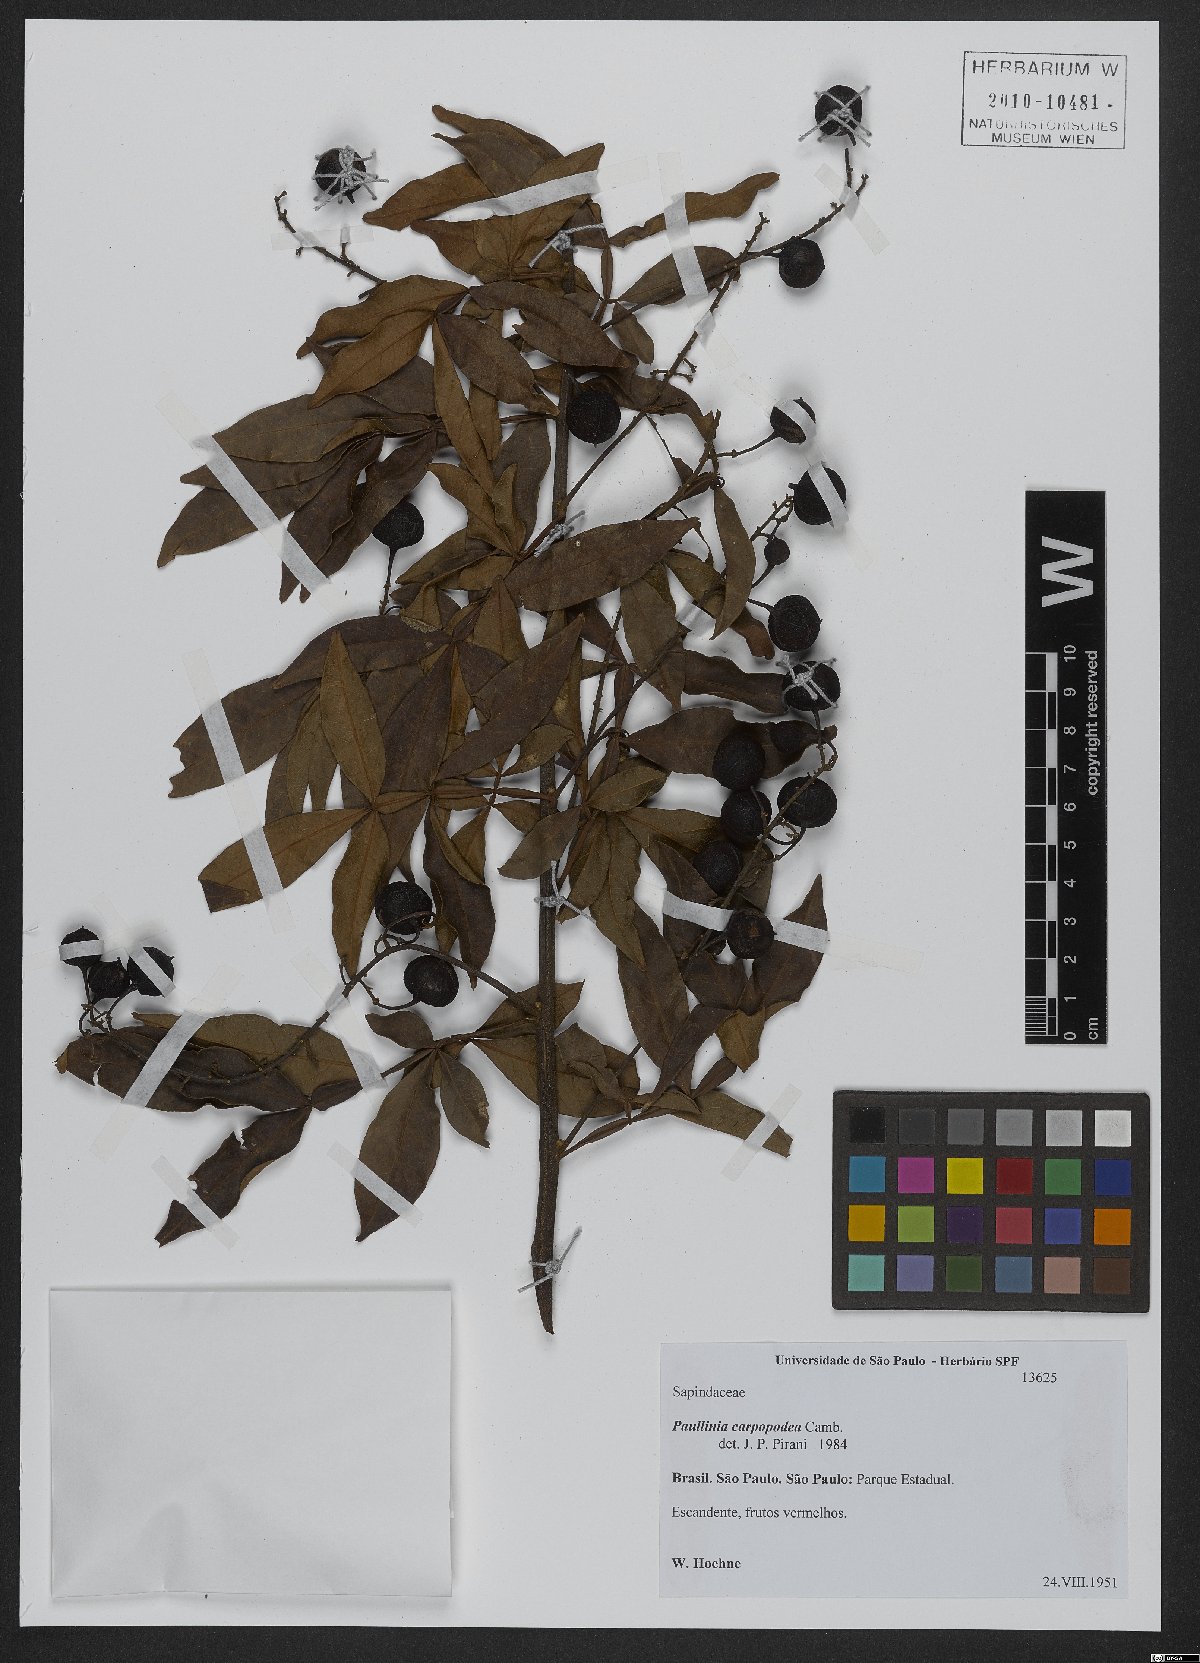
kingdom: Plantae
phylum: Tracheophyta
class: Magnoliopsida
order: Sapindales
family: Sapindaceae
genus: Paullinia
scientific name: Paullinia carpopoda
